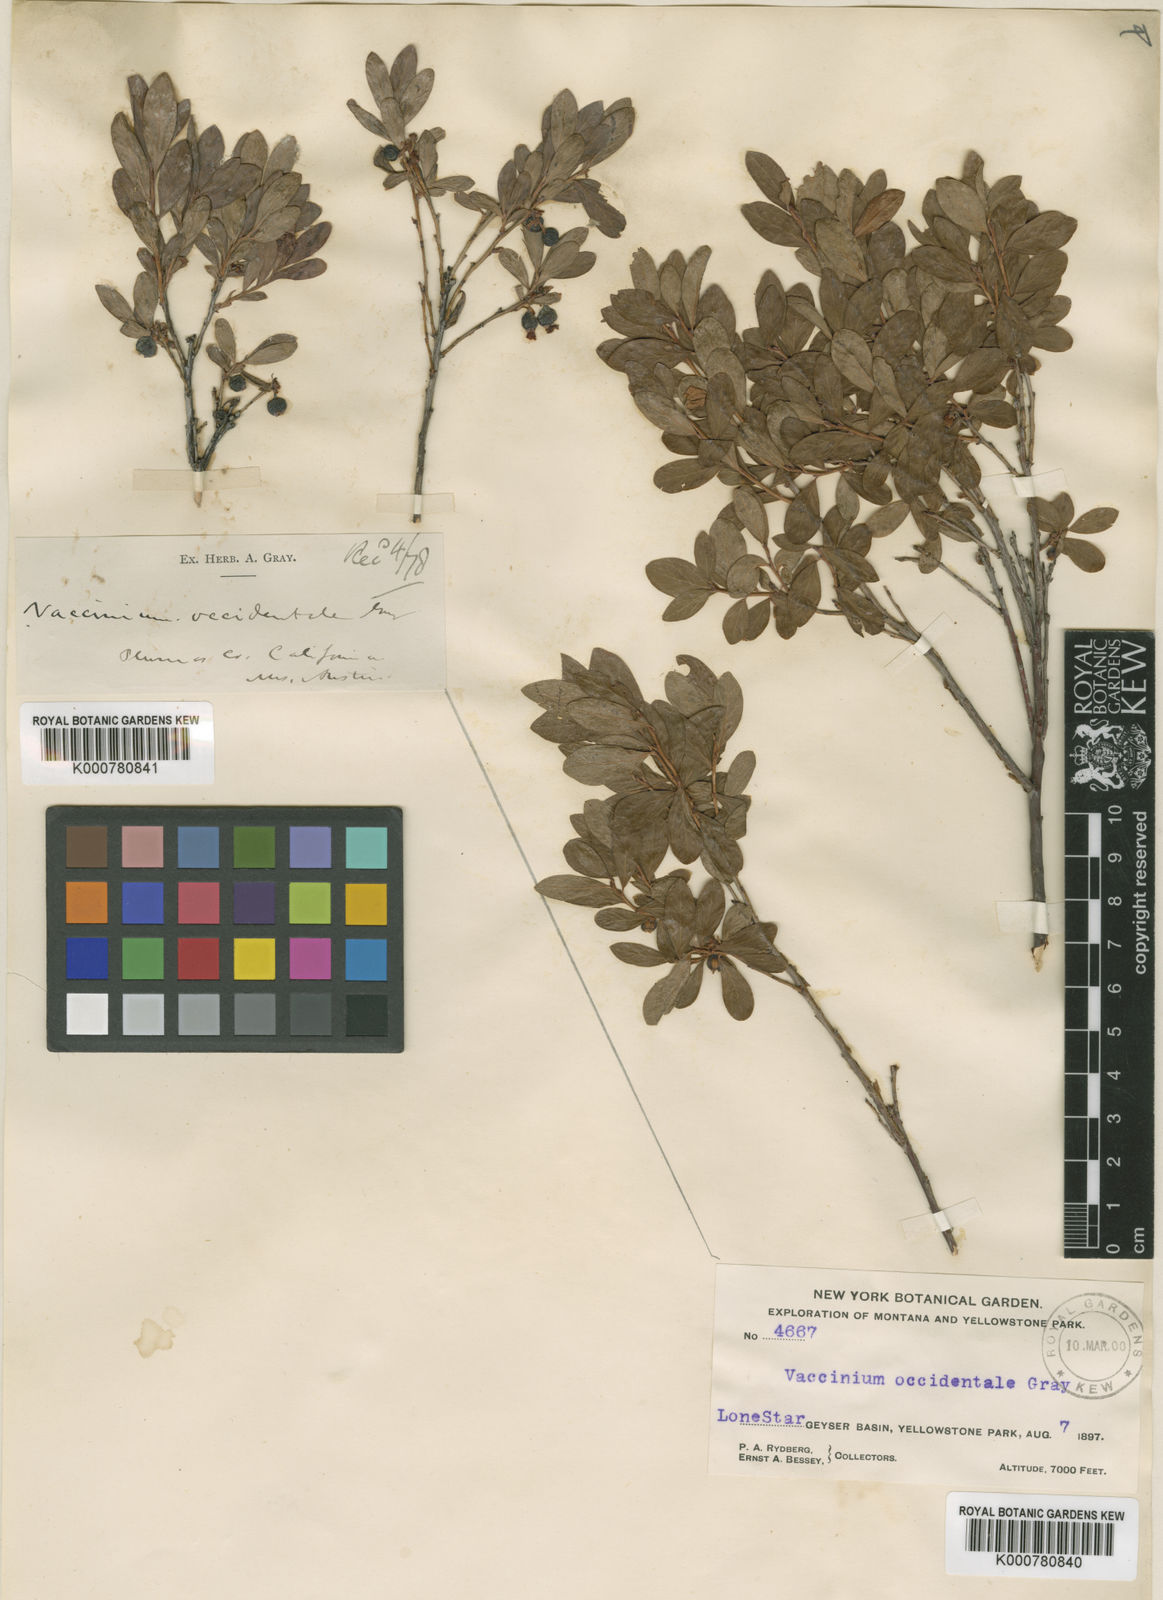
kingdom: Plantae
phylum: Tracheophyta
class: Magnoliopsida
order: Ericales
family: Ericaceae
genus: Vaccinium
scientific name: Vaccinium uliginosum
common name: Bog bilberry
